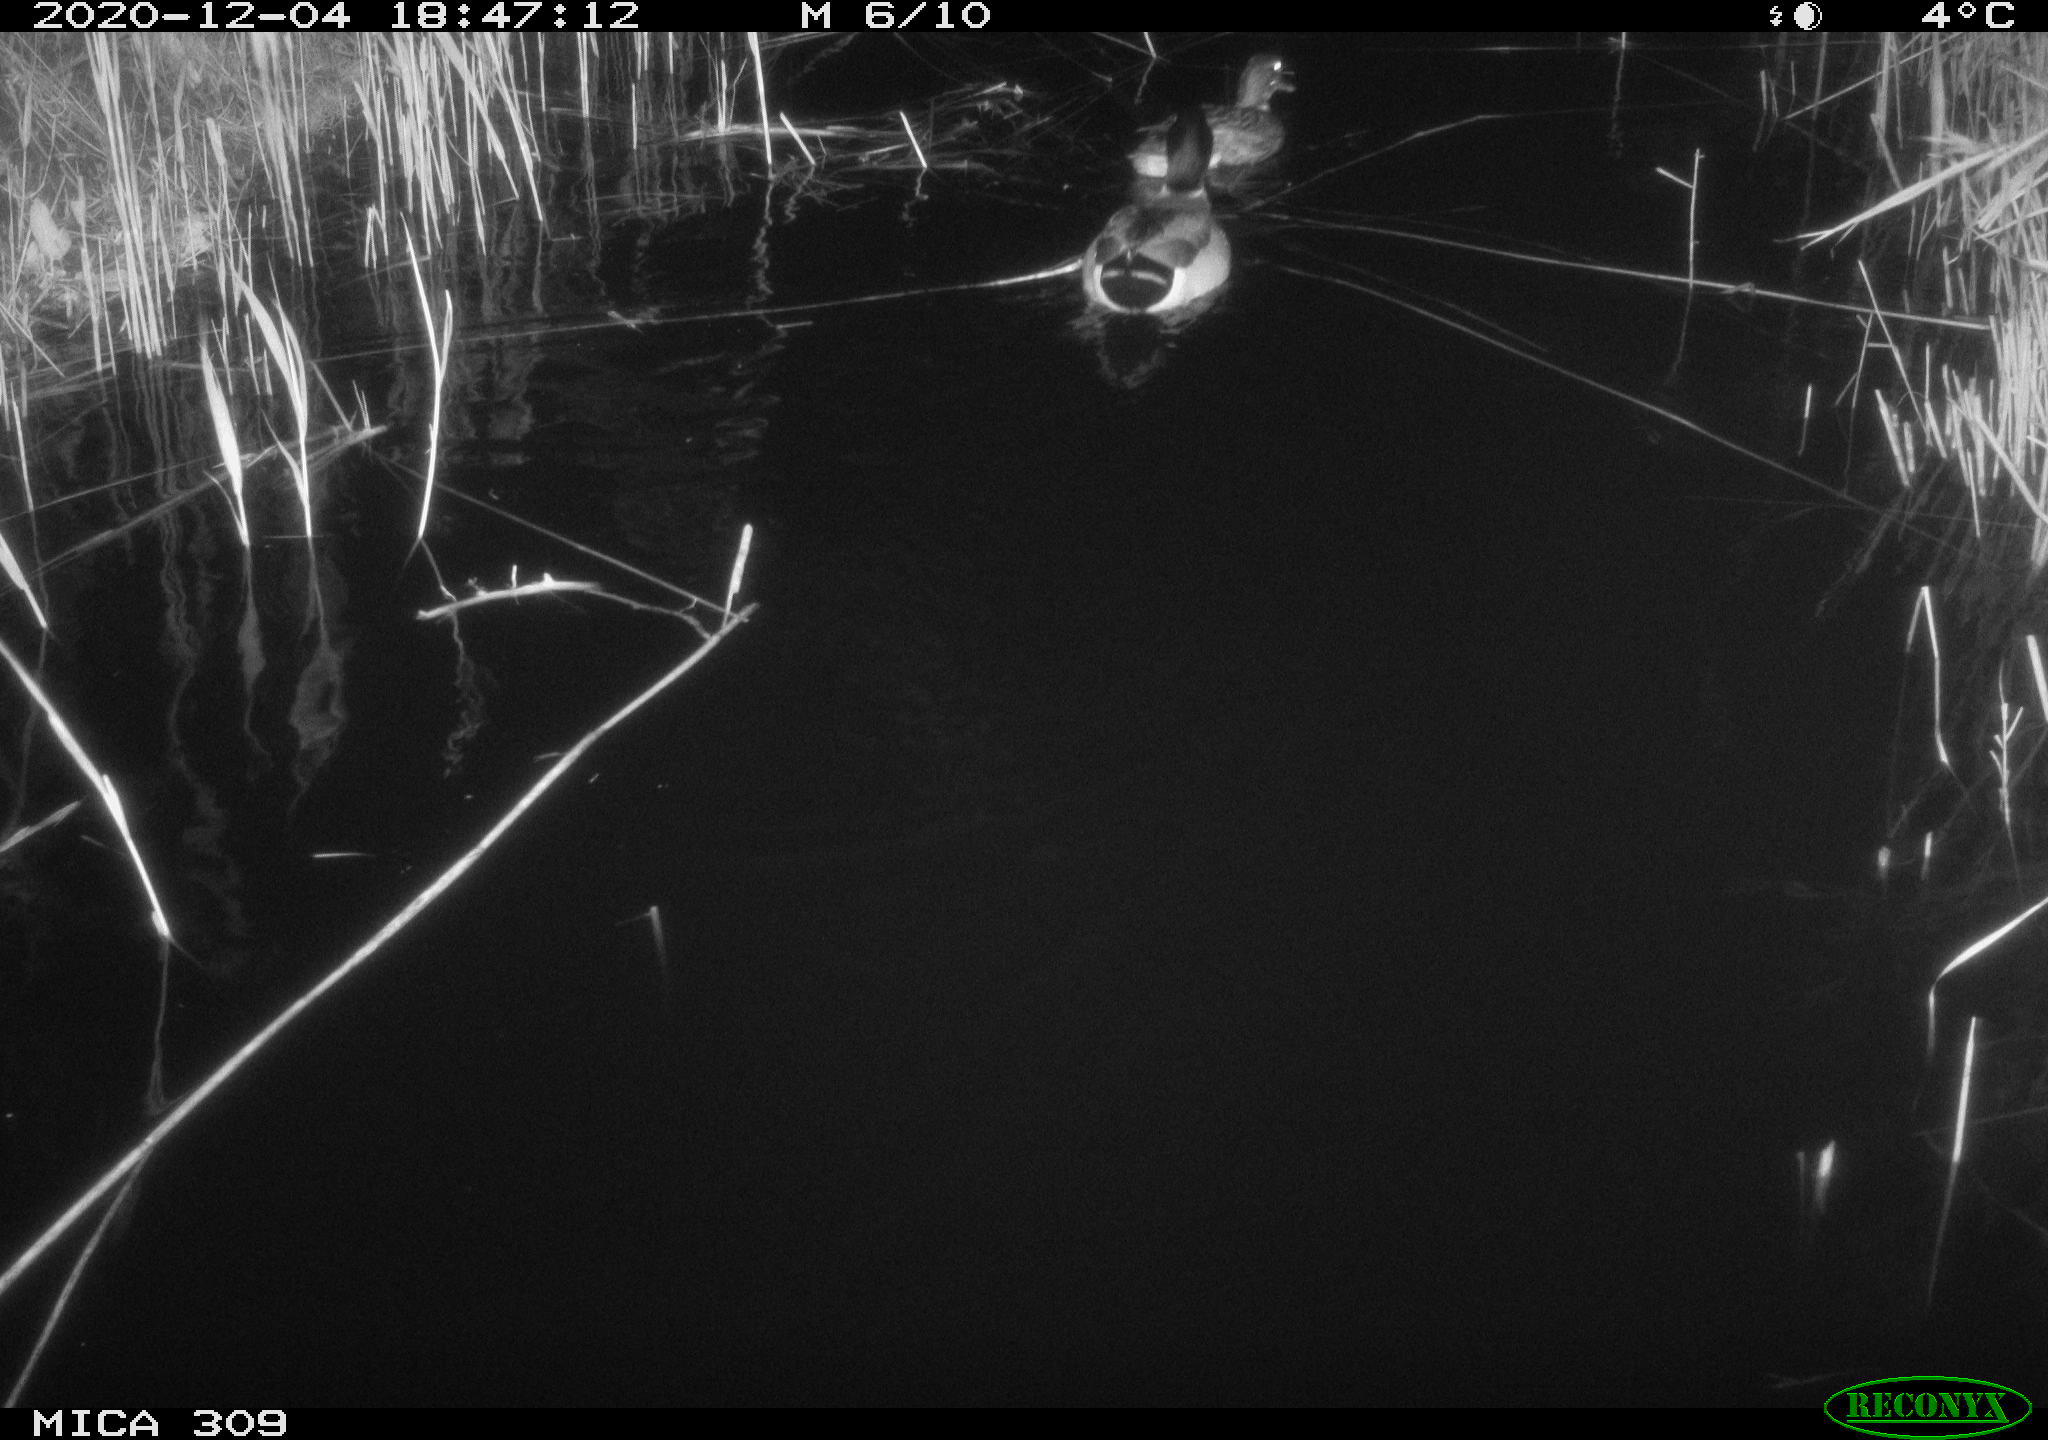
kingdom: Animalia
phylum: Chordata
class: Aves
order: Anseriformes
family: Anatidae
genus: Anas
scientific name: Anas platyrhynchos
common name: Mallard
